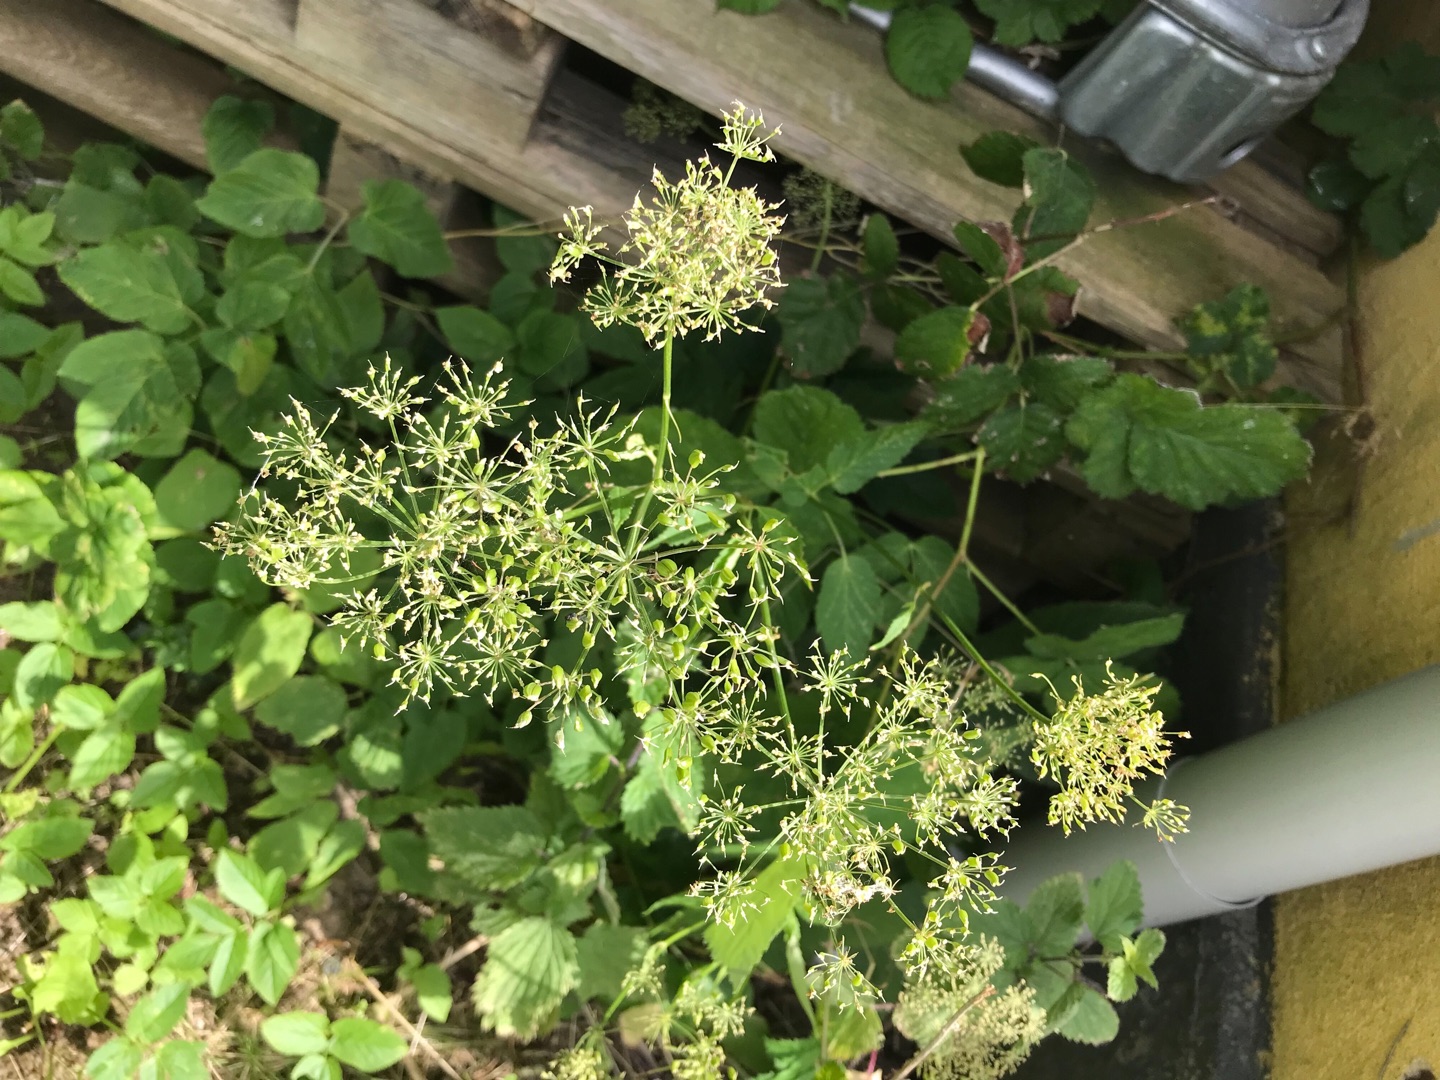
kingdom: Plantae
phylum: Tracheophyta
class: Magnoliopsida
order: Apiales
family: Apiaceae
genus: Aegopodium
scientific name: Aegopodium podagraria
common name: Skvalderkål
